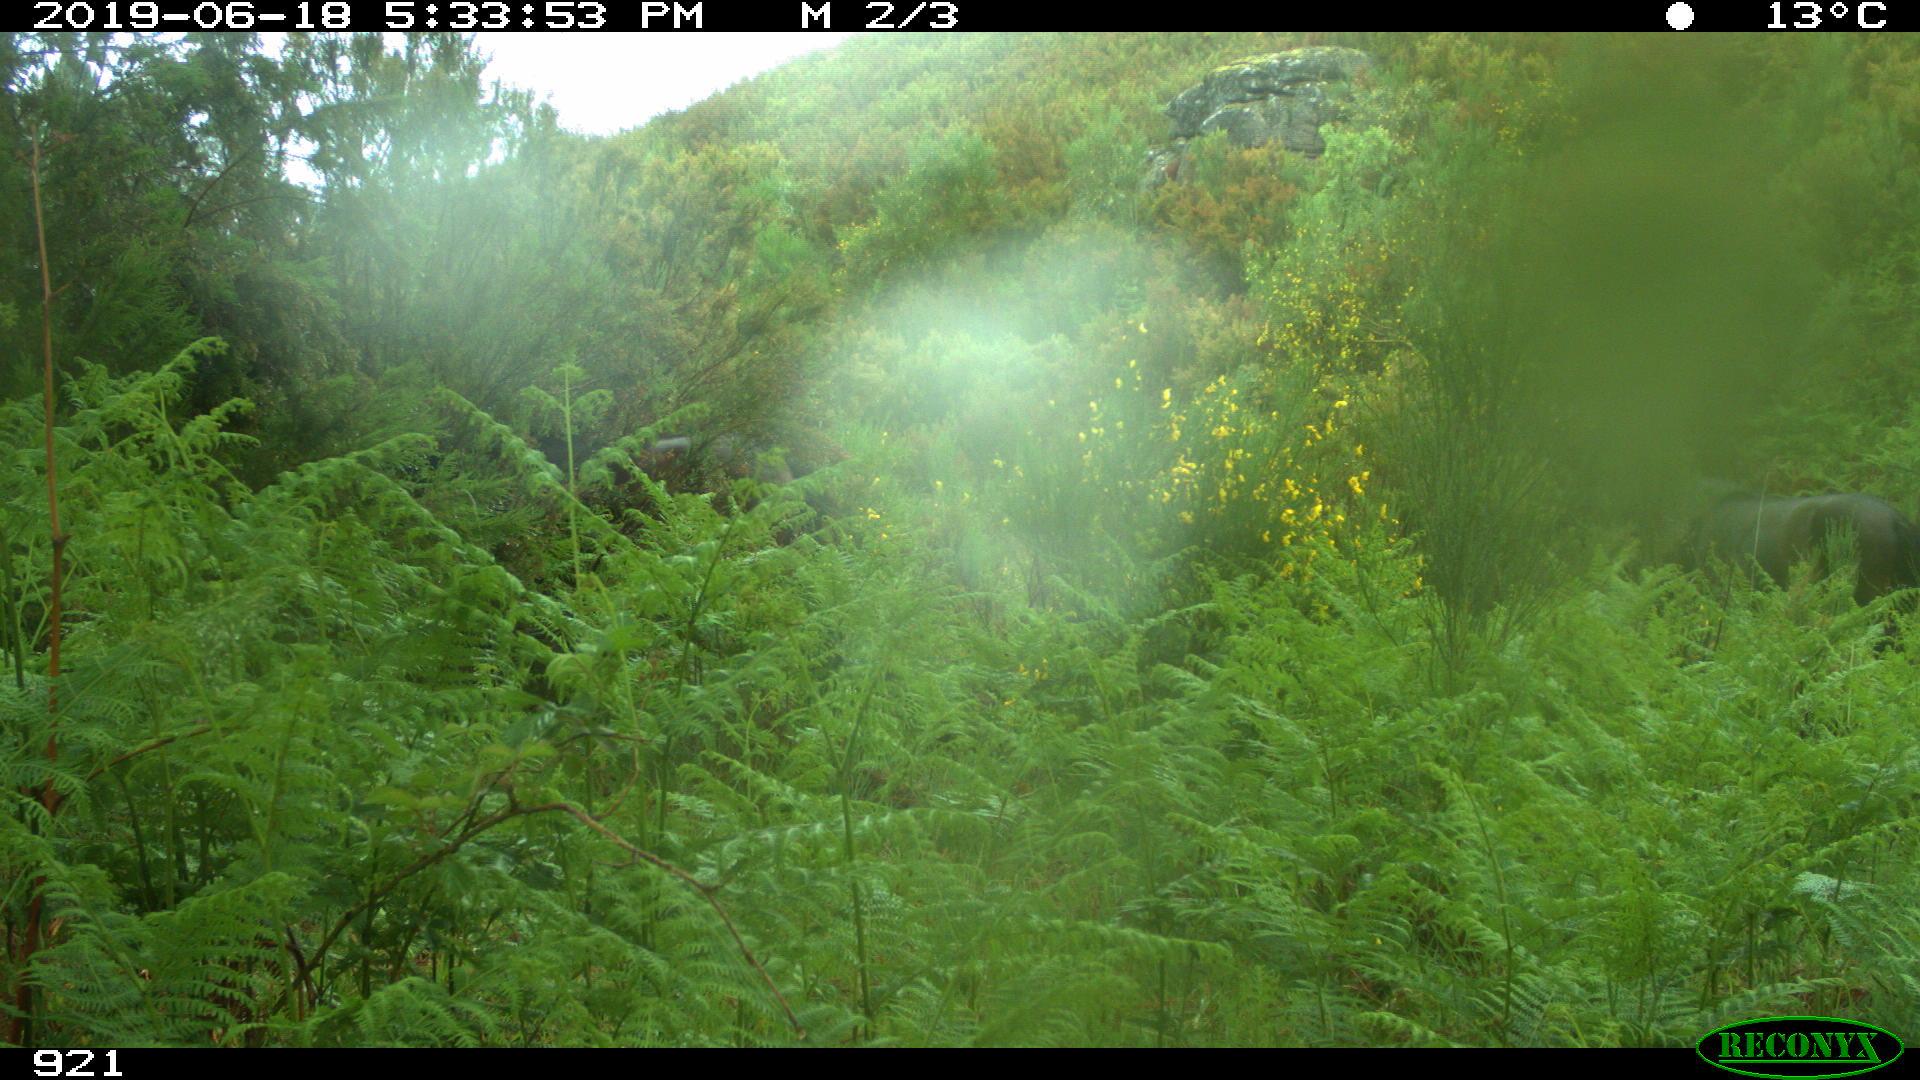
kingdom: Animalia
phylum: Chordata
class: Mammalia
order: Perissodactyla
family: Equidae
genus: Equus
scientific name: Equus caballus
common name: Horse
